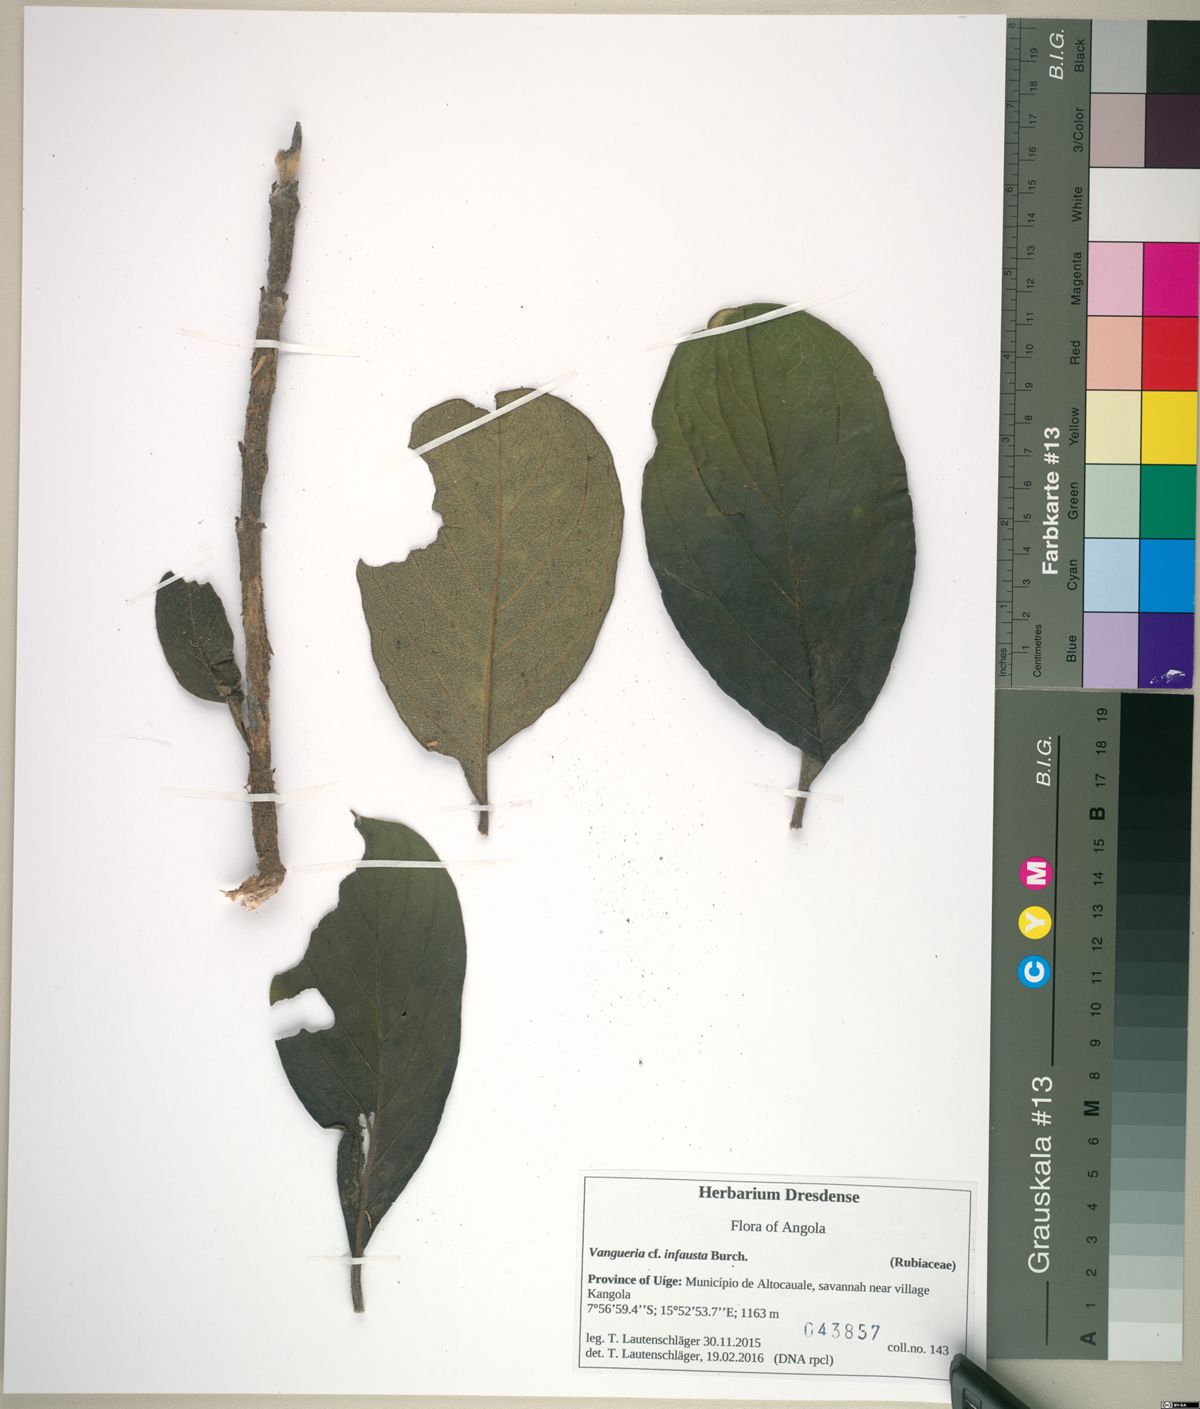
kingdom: Plantae
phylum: Tracheophyta
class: Magnoliopsida
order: Gentianales
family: Rubiaceae
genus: Vangueria
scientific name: Vangueria infausta
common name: Medlar
